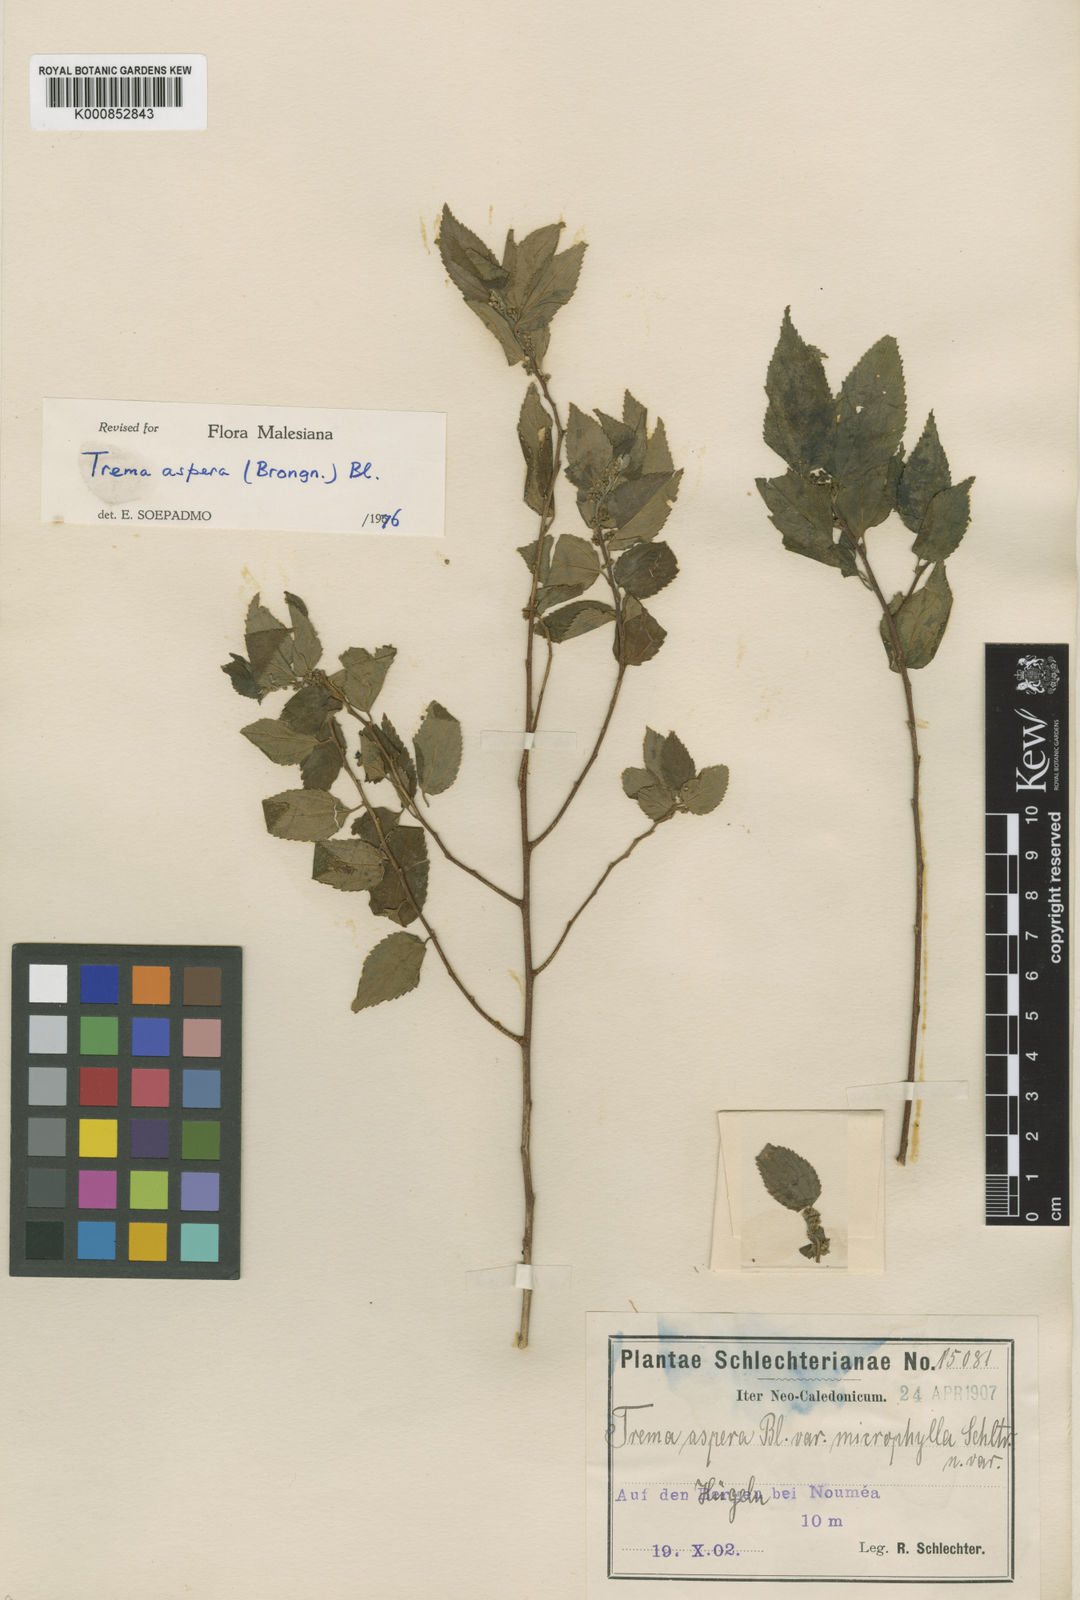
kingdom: Plantae
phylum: Tracheophyta
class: Magnoliopsida
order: Rosales
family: Cannabaceae
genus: Trema
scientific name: Trema tomentosum
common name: Peach-leaf-poisonbush
